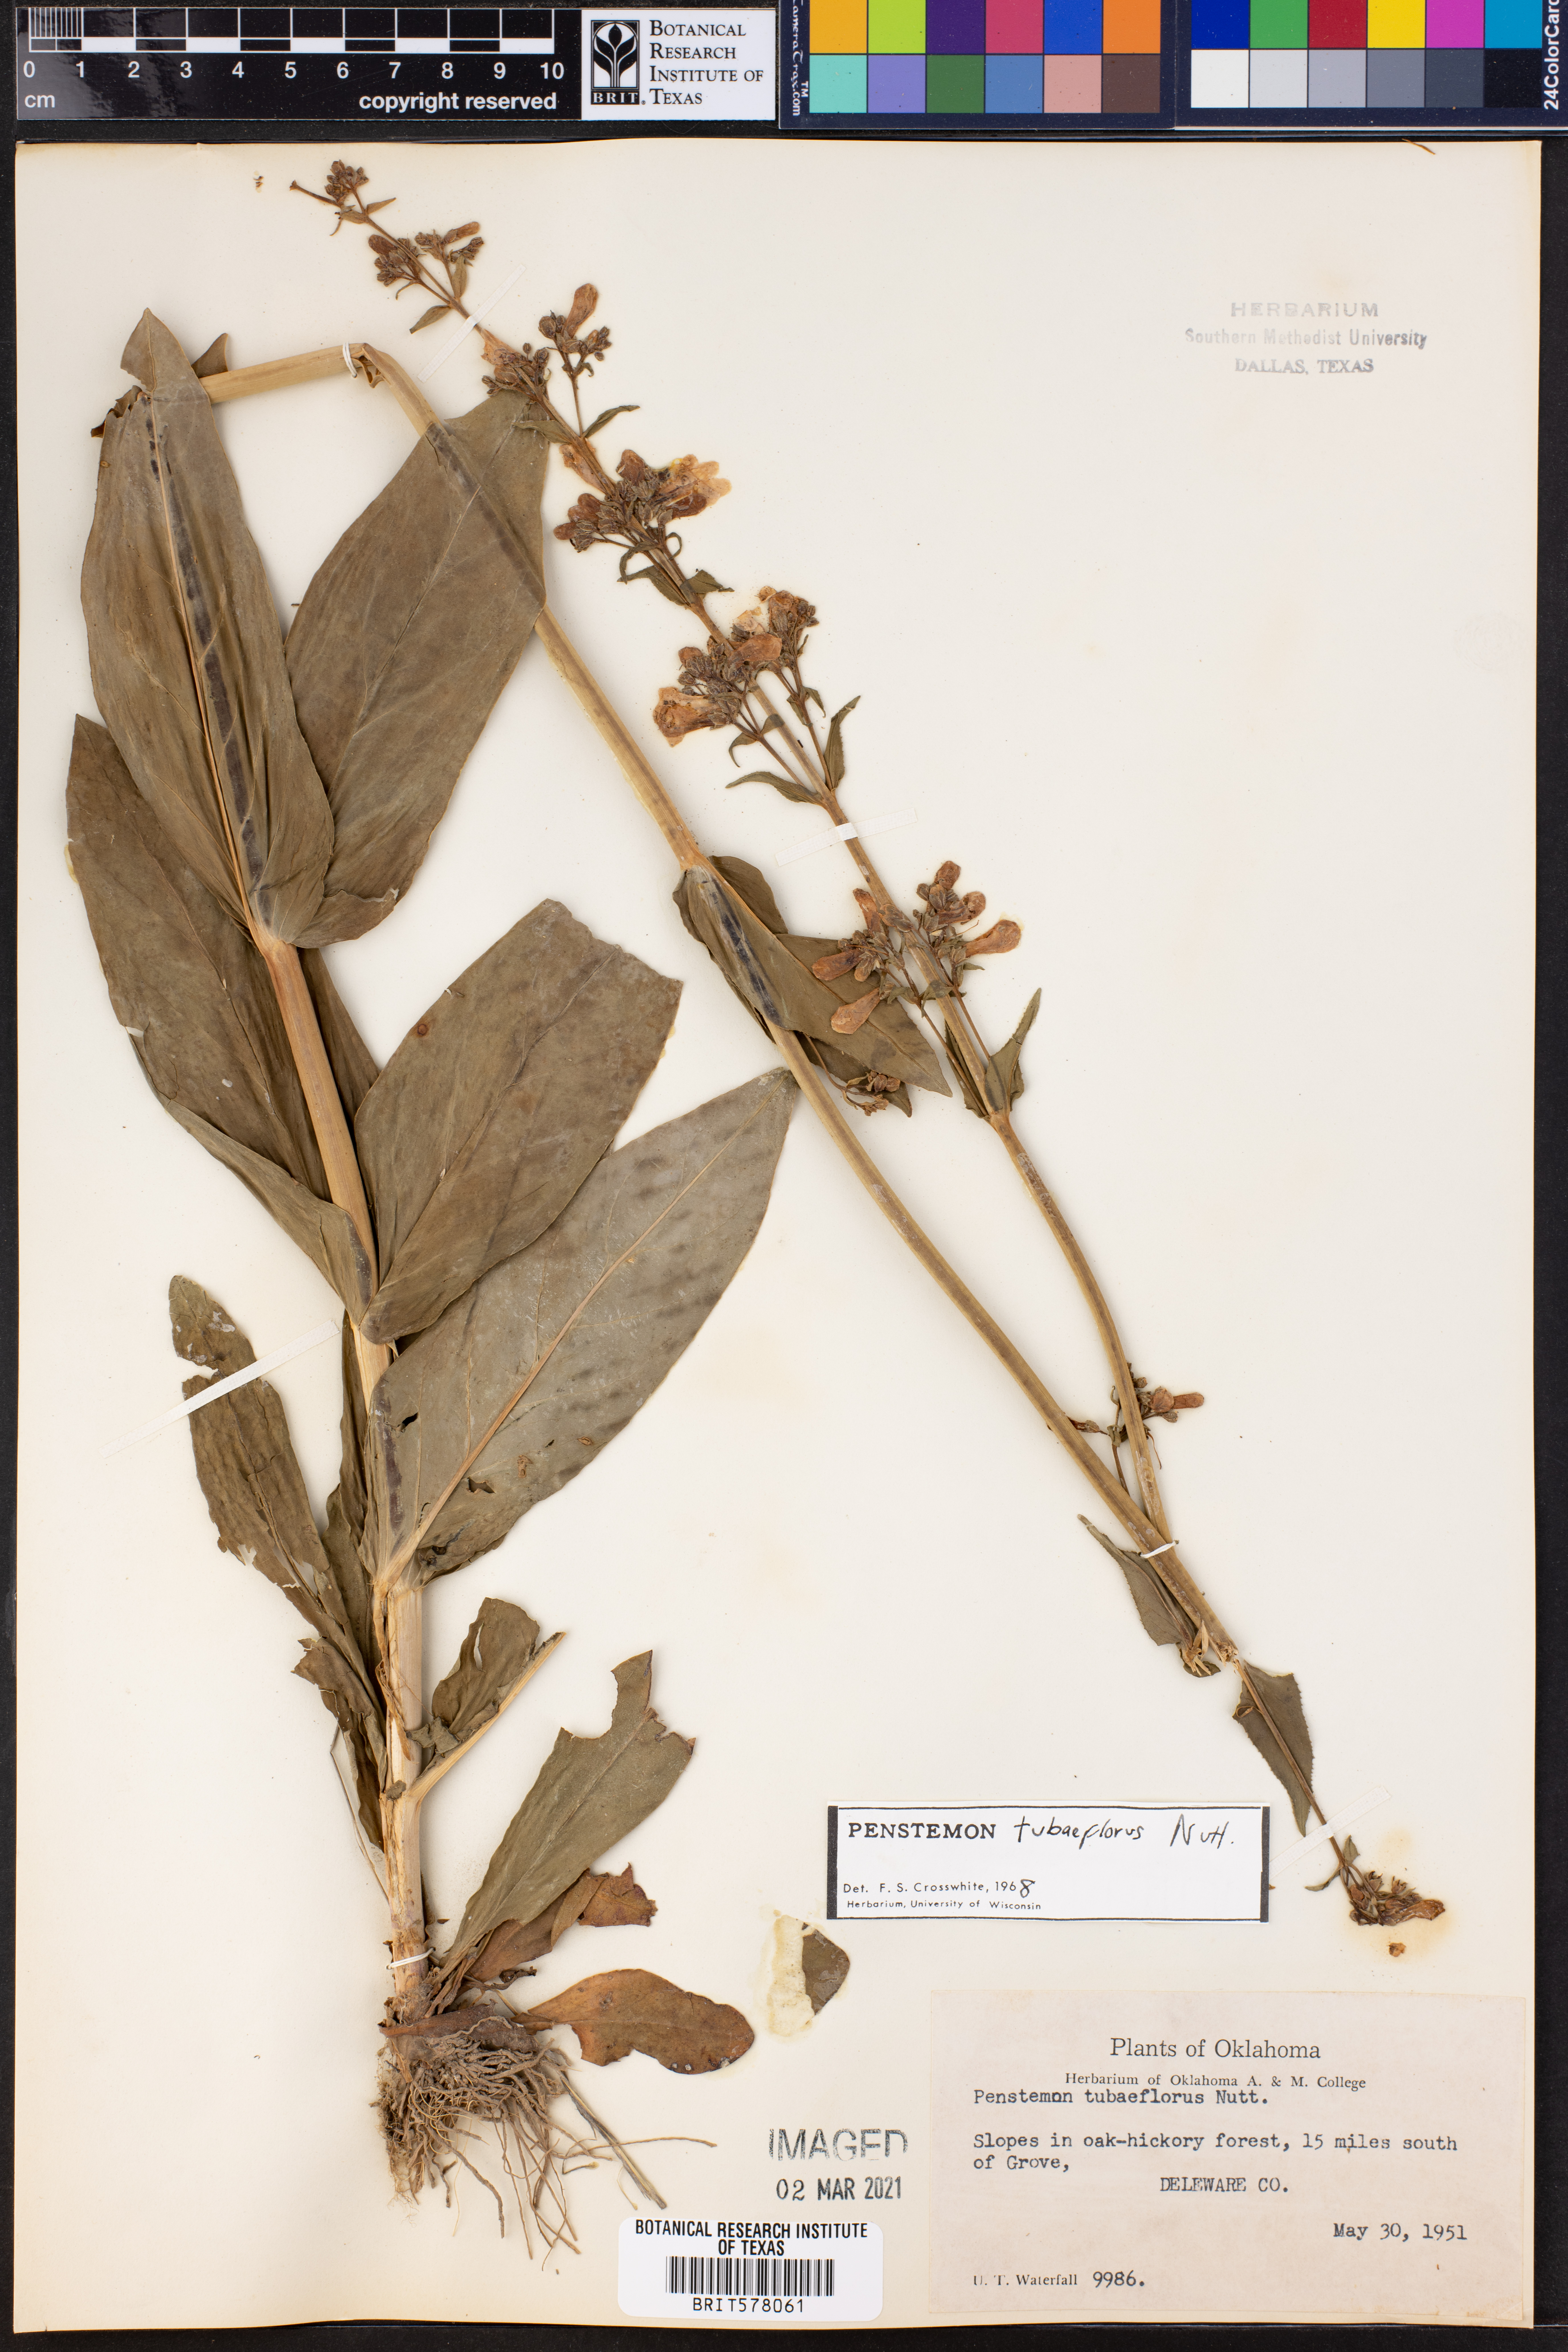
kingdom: Plantae
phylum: Tracheophyta
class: Magnoliopsida
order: Lamiales
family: Plantaginaceae
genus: Penstemon
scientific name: Penstemon tubaeflorus
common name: White wand beardtongue
